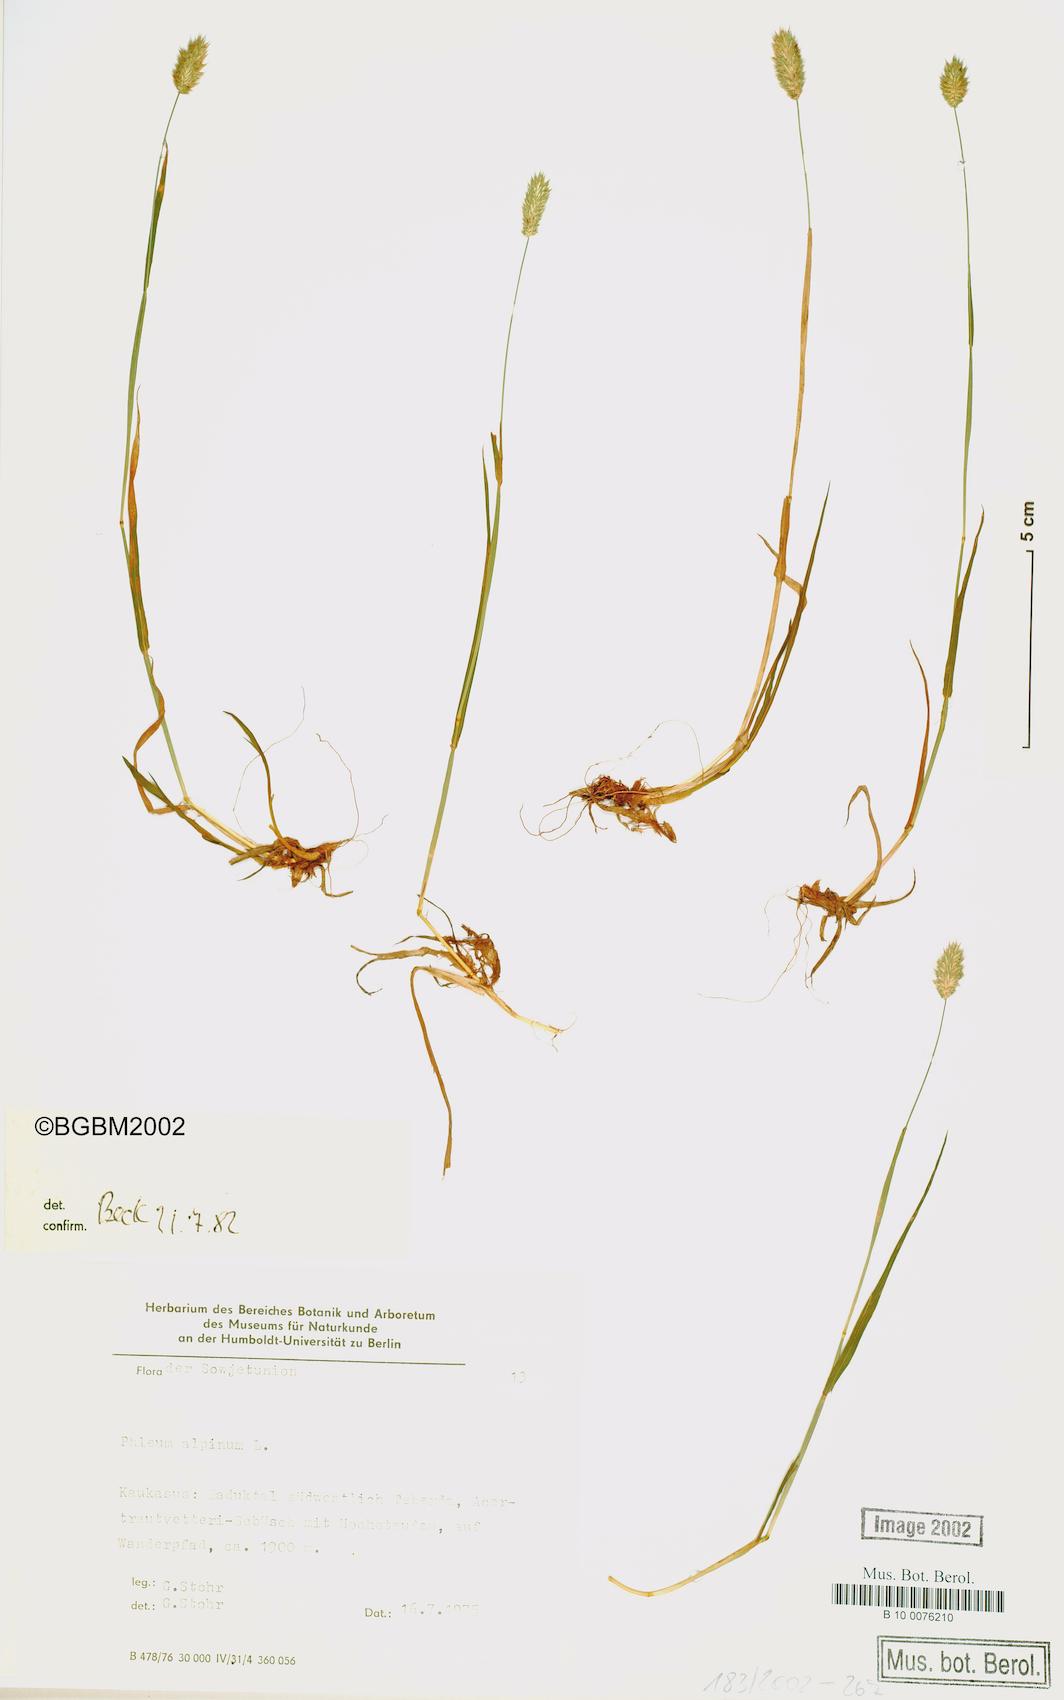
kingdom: Plantae
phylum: Tracheophyta
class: Liliopsida
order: Poales
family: Poaceae
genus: Phleum
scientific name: Phleum alpinum
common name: Alpine cat's-tail
